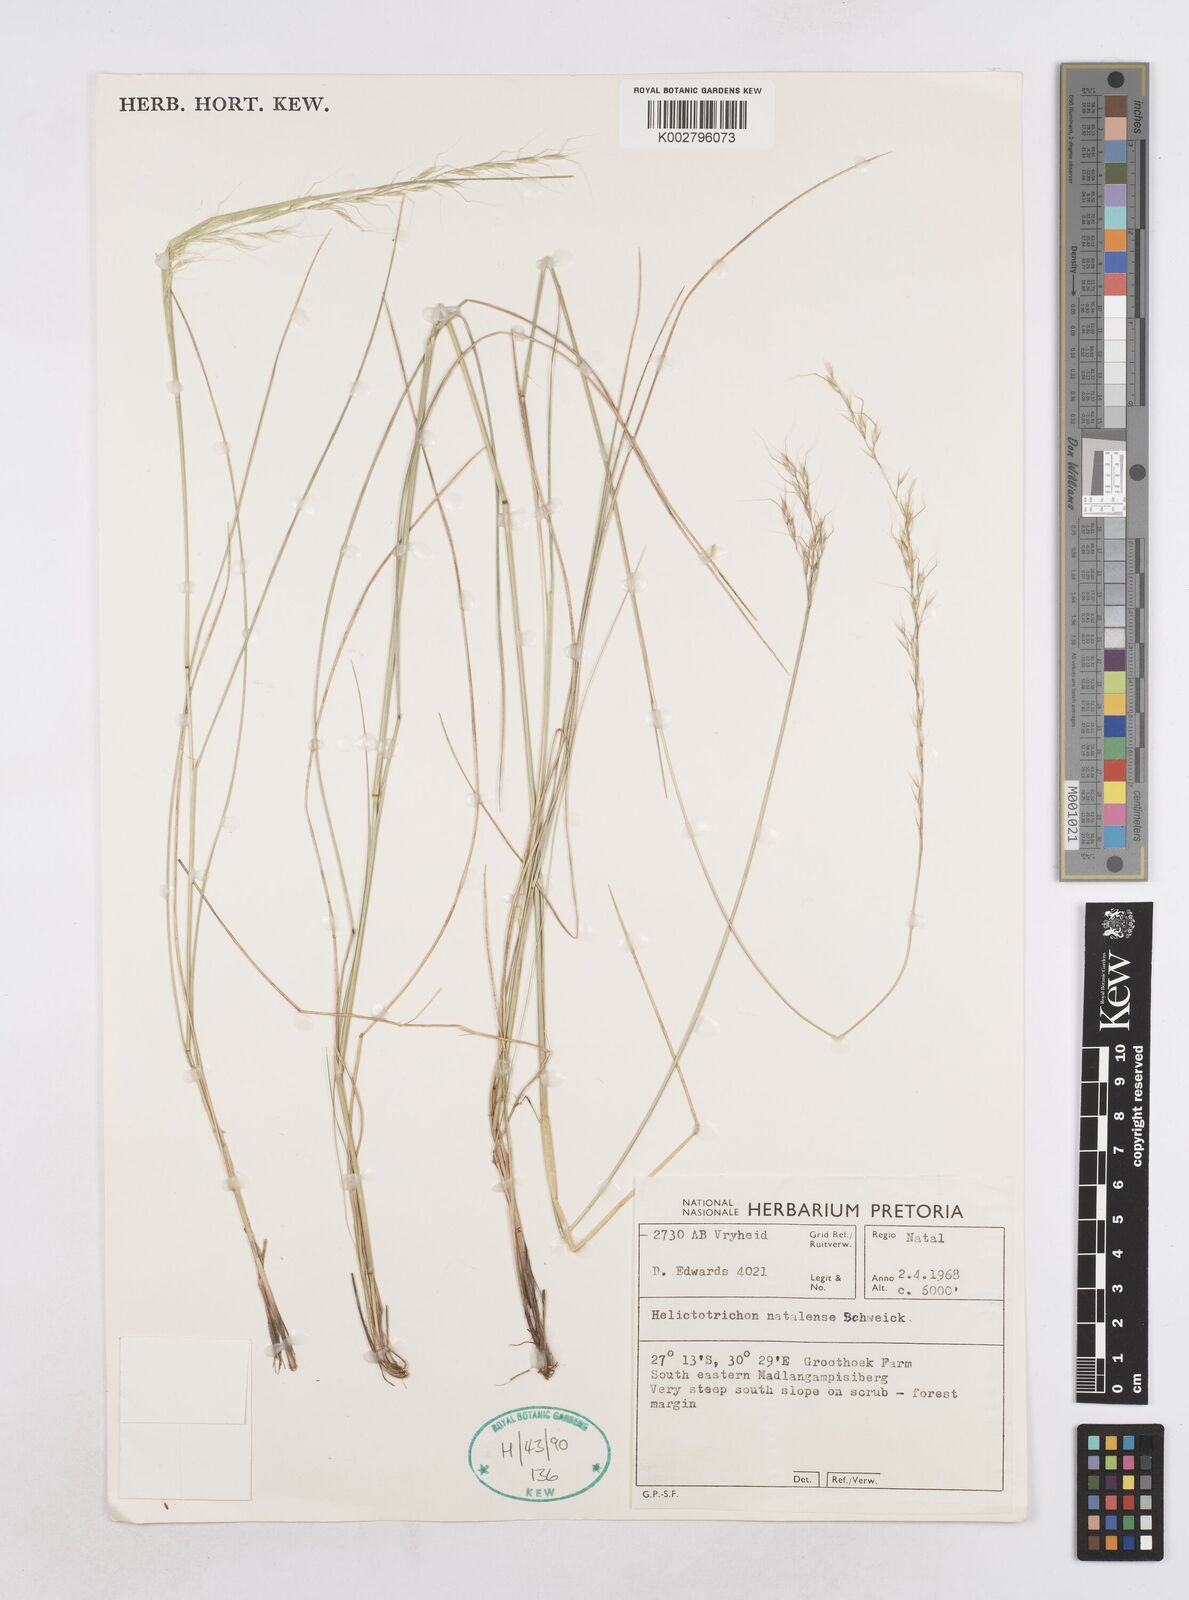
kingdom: Plantae
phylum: Tracheophyta
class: Liliopsida
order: Poales
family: Poaceae
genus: Trisetopsis
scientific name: Trisetopsis natalensis
